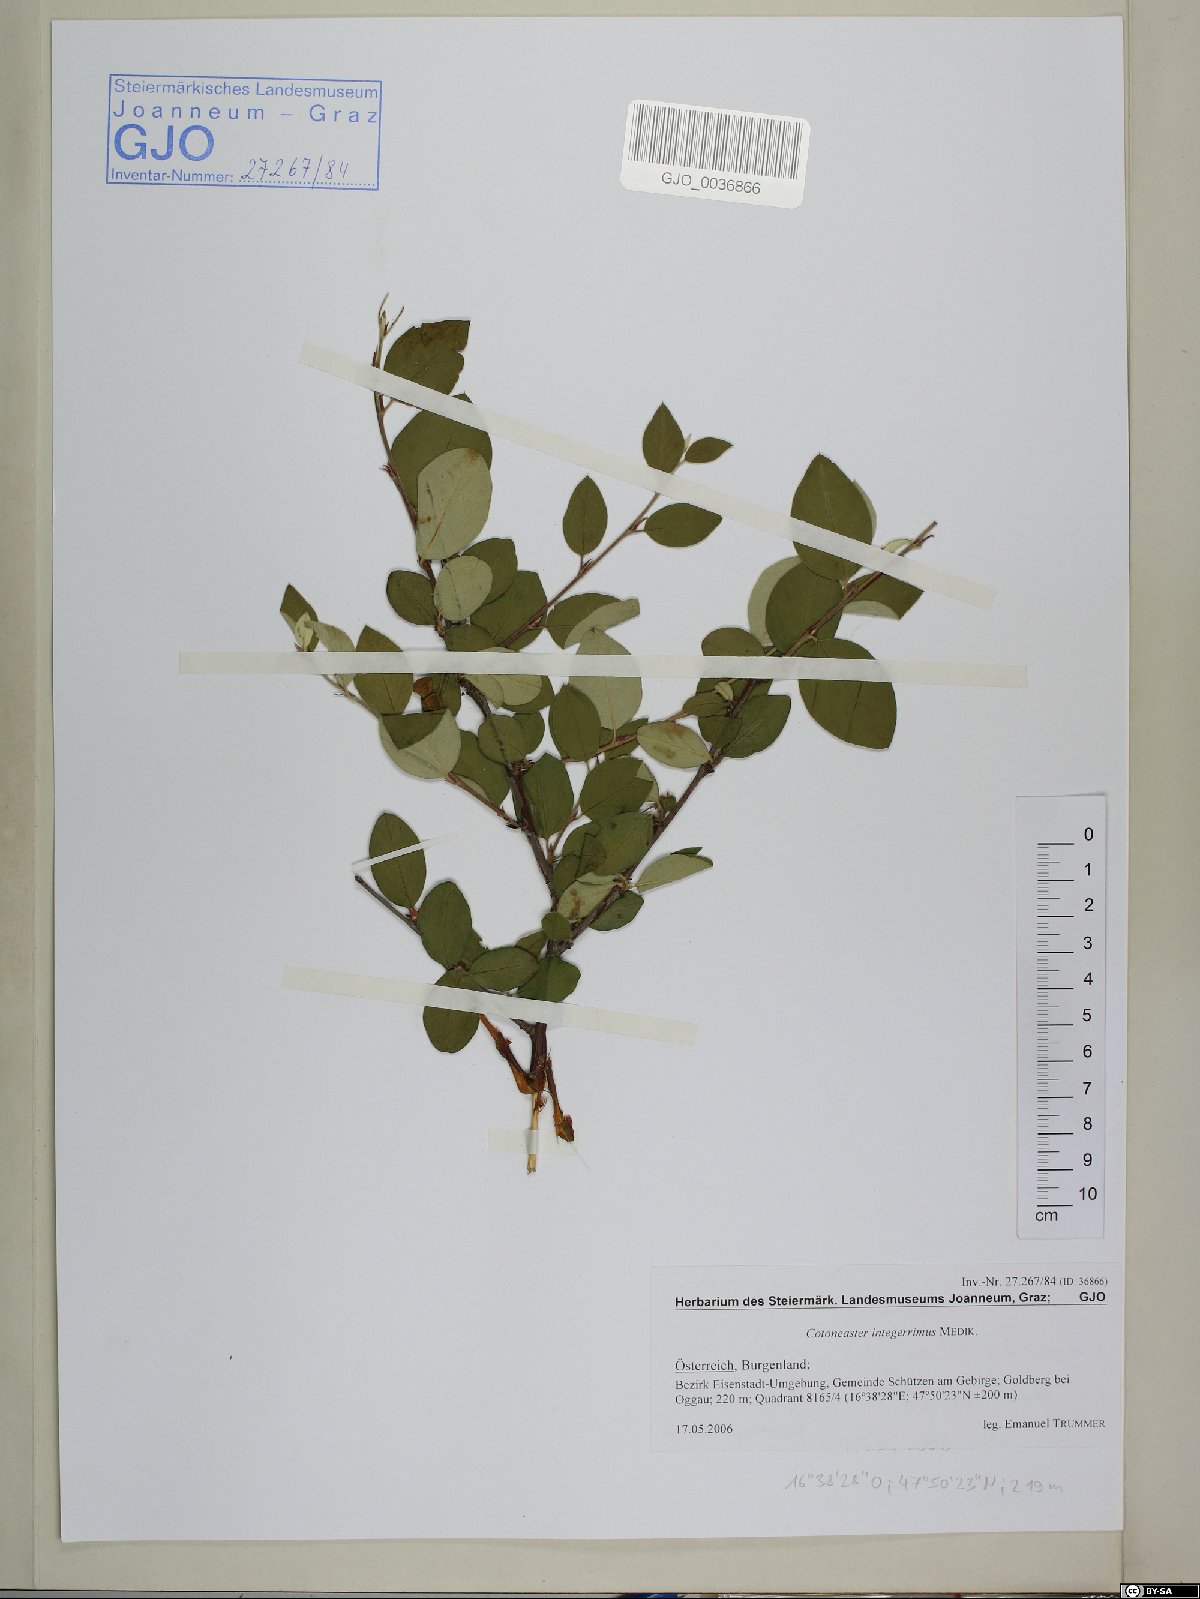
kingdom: Plantae
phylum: Tracheophyta
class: Magnoliopsida
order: Rosales
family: Rosaceae
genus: Cotoneaster
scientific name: Cotoneaster integerrimus
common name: Wild cotoneaster
